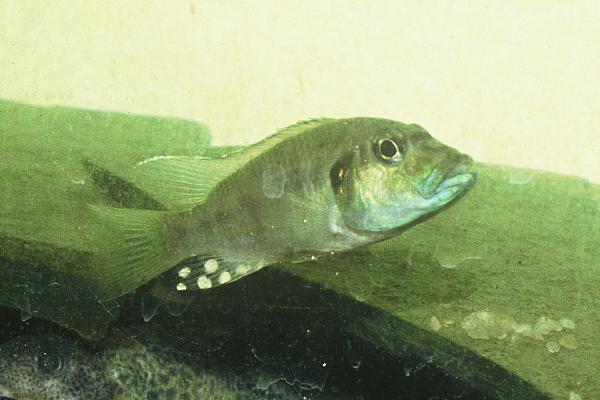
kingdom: Animalia
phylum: Chordata
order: Perciformes
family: Cichlidae
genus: Ctenochromis
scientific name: Ctenochromis
